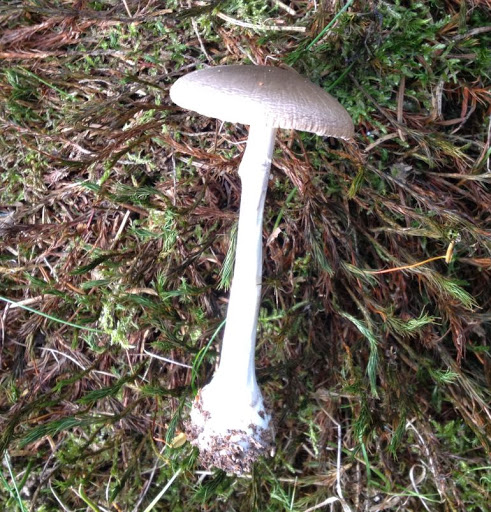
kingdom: Fungi
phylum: Basidiomycota
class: Agaricomycetes
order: Agaricales
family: Amanitaceae
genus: Amanita
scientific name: Amanita porphyria
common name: porfyr-fluesvamp
